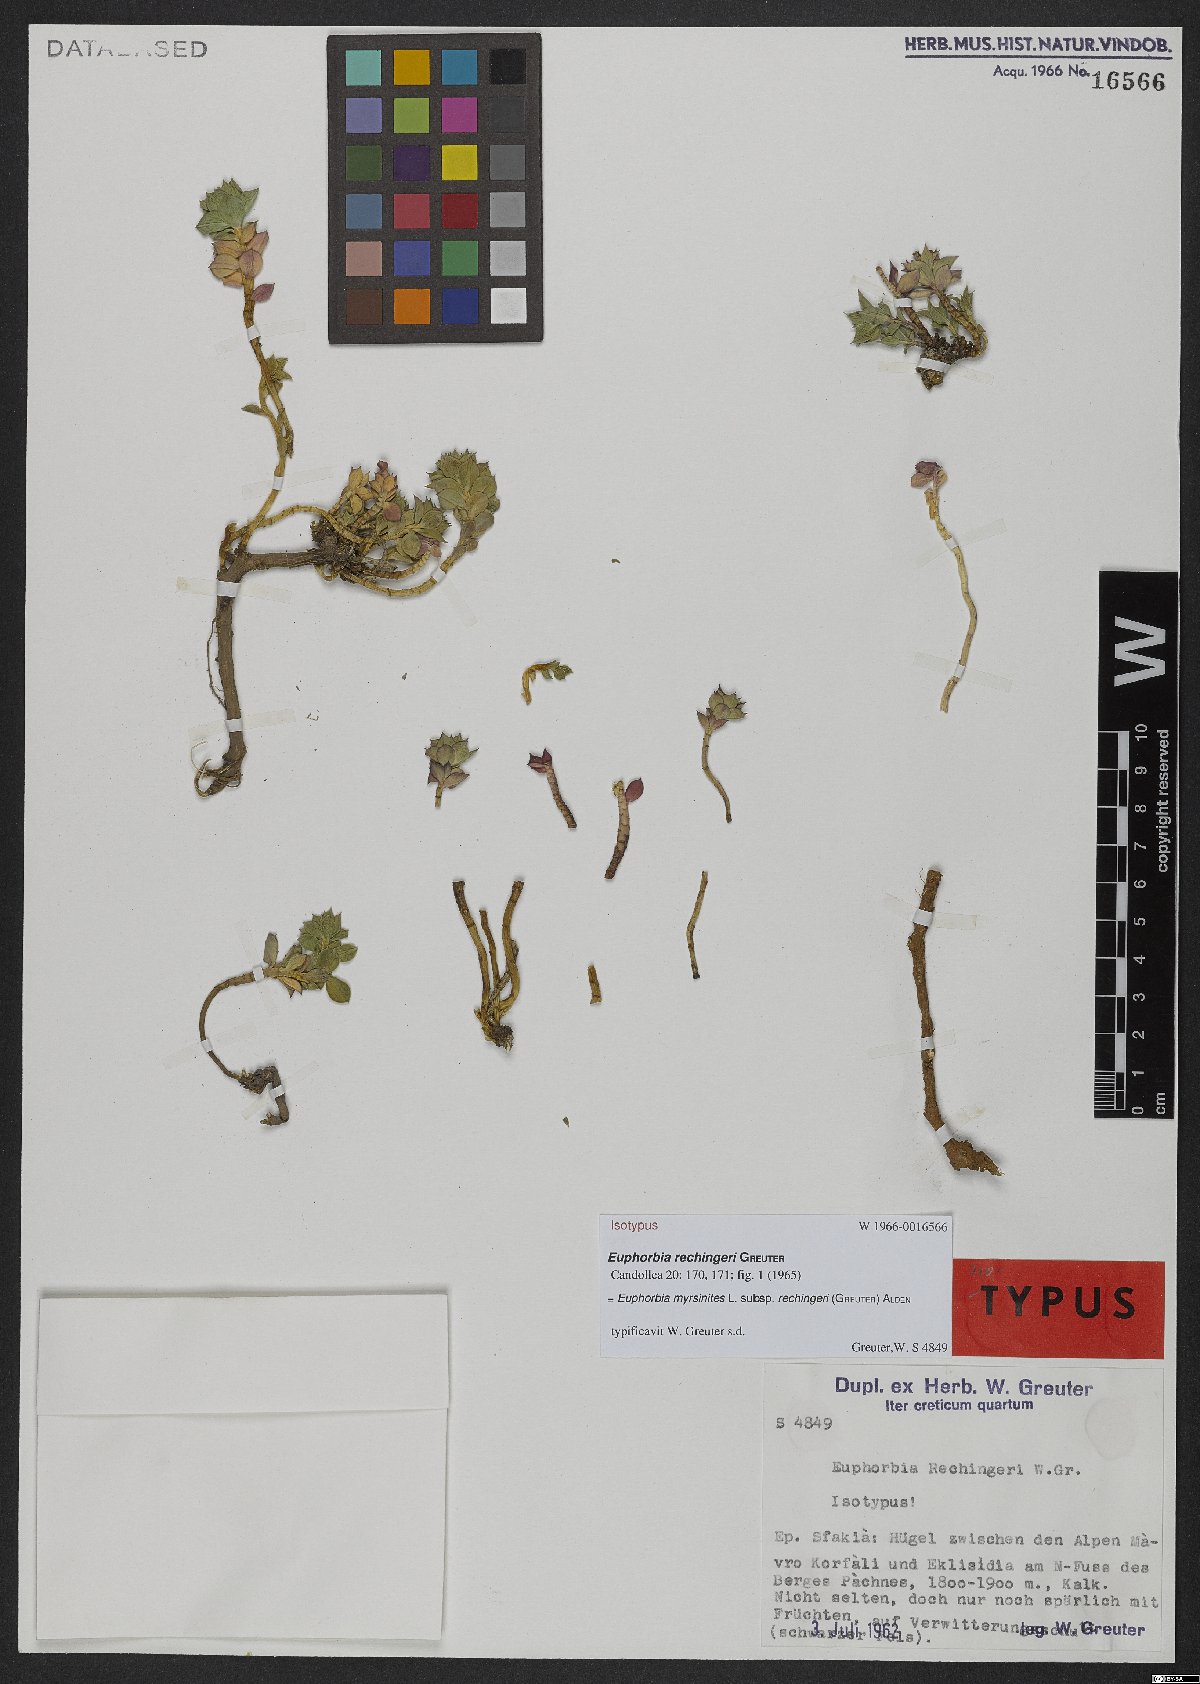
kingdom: Plantae
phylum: Tracheophyta
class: Magnoliopsida
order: Malpighiales
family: Euphorbiaceae
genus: Euphorbia
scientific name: Euphorbia myrsinites
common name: Myrtle spurge
